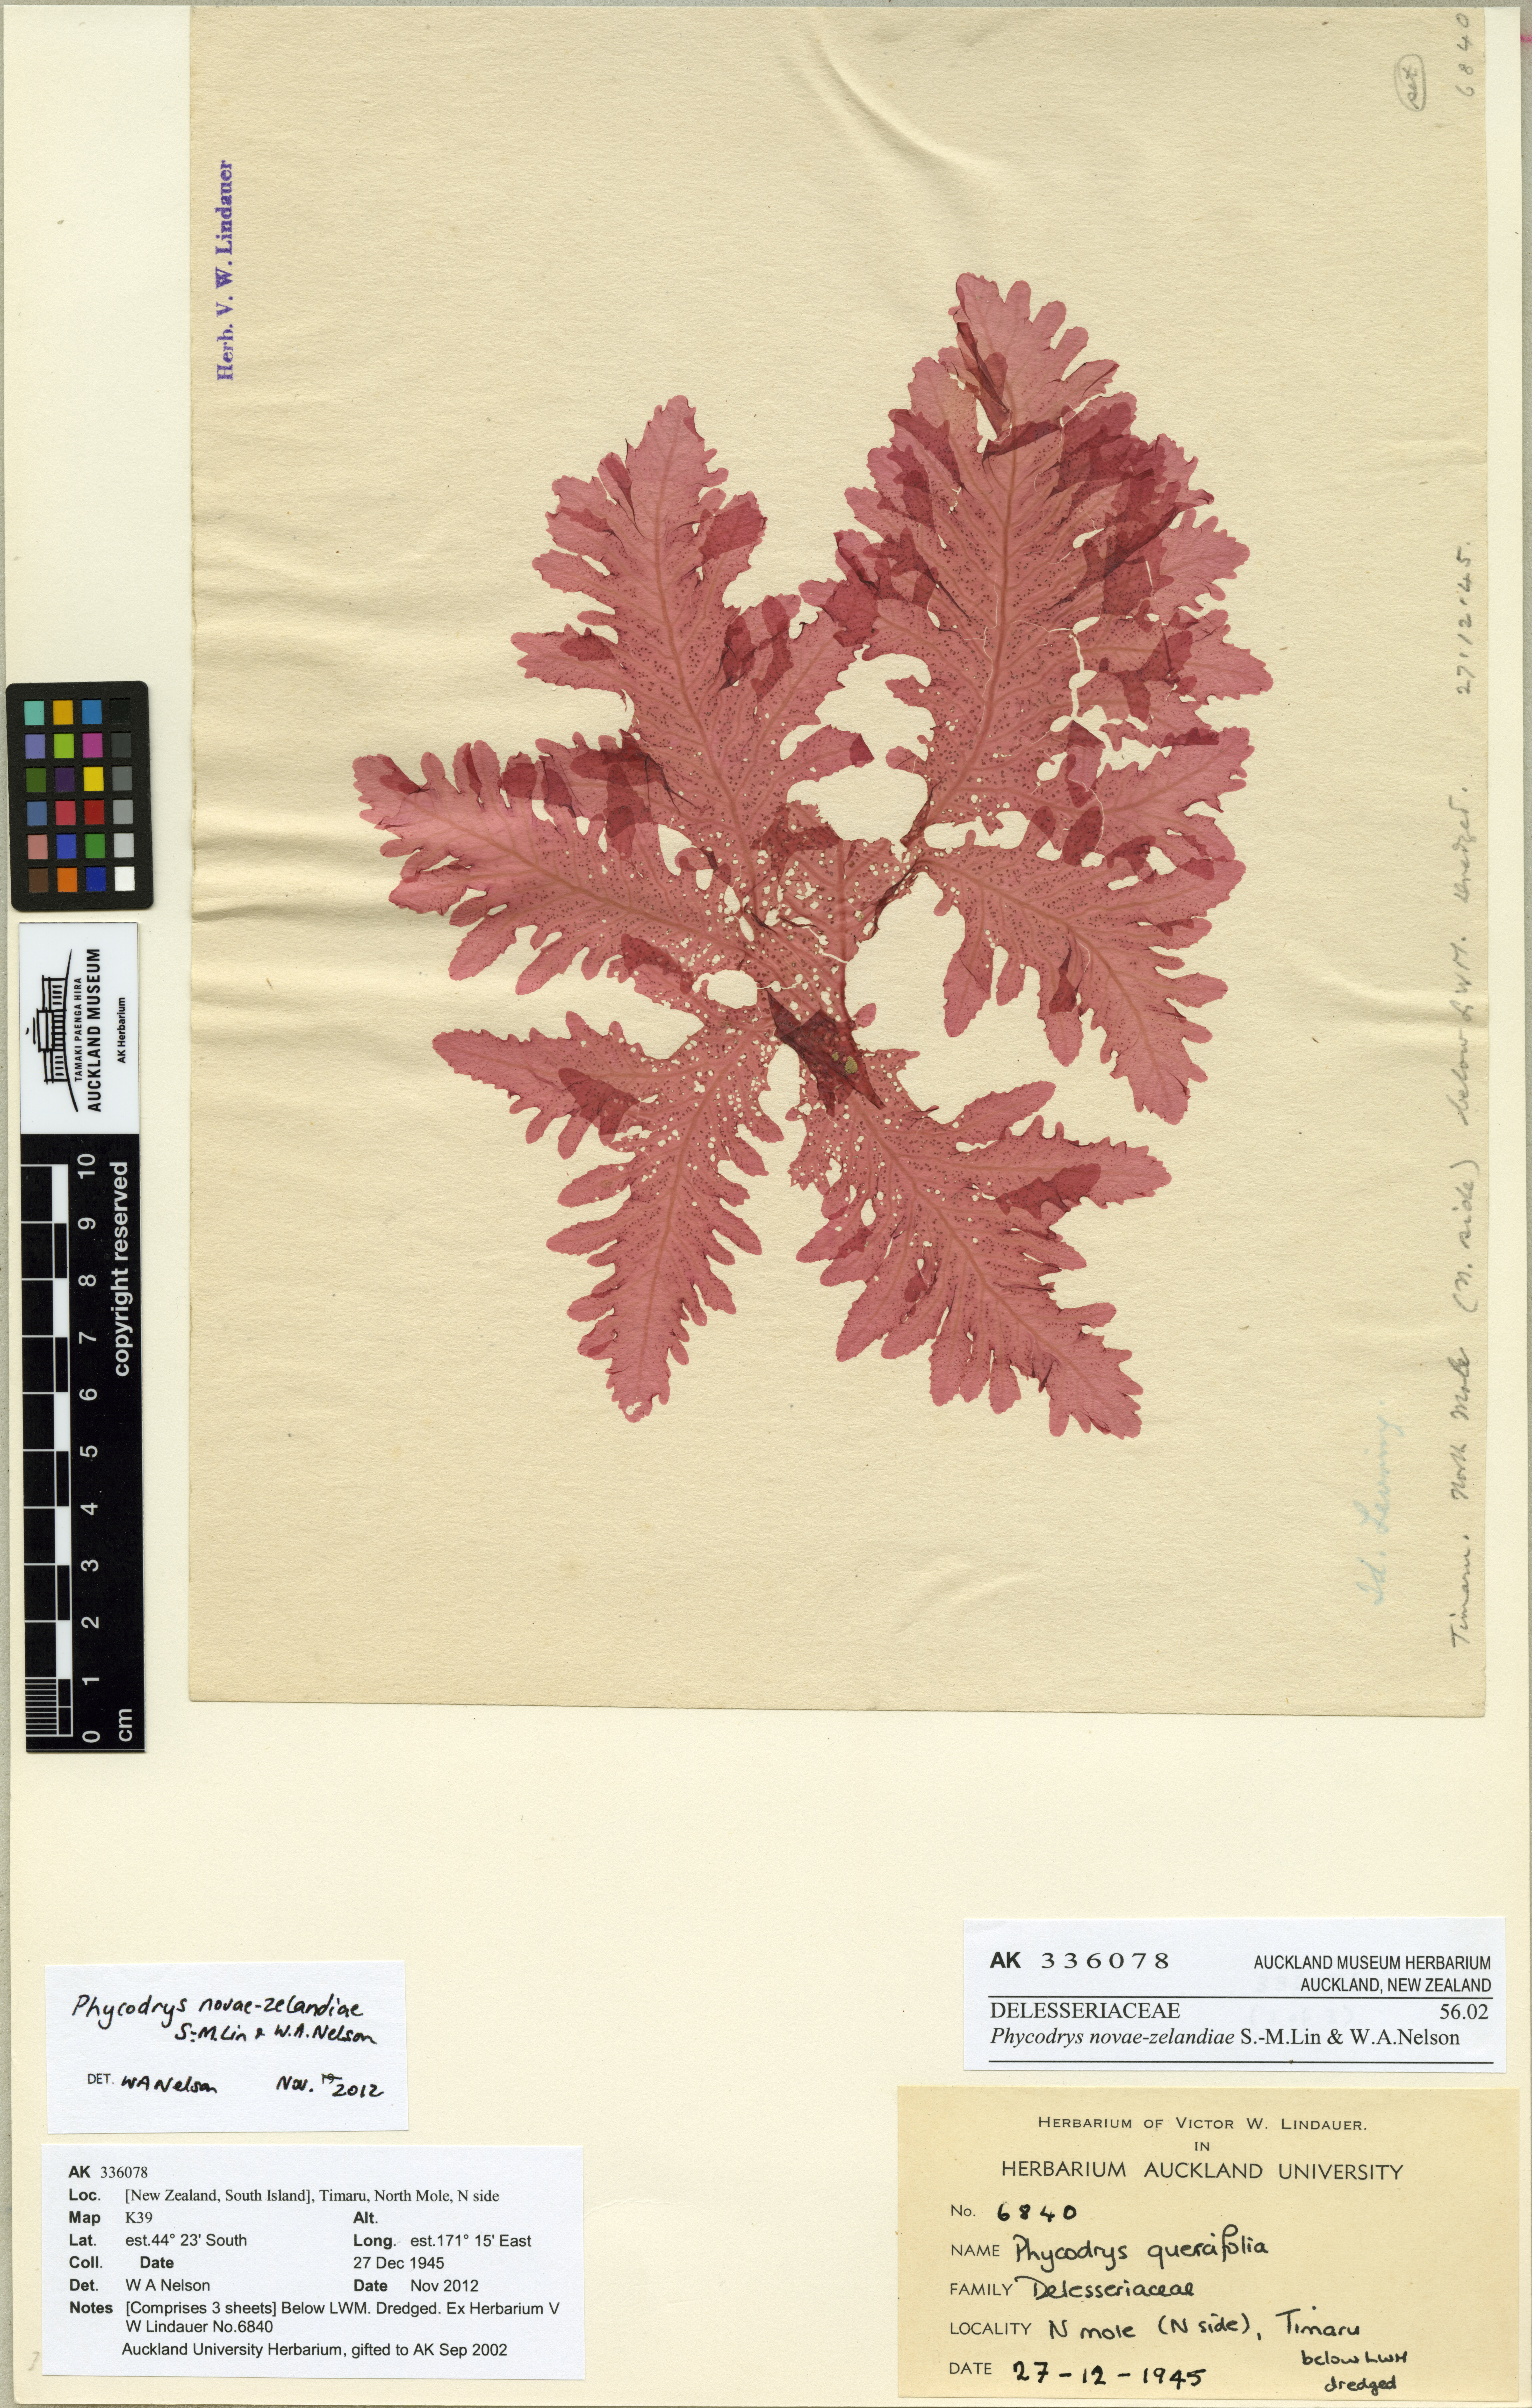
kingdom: Plantae
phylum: Rhodophyta
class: Florideophyceae
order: Ceramiales
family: Delesseriaceae
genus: Phycodrys
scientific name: Phycodrys novae-zelandiae
